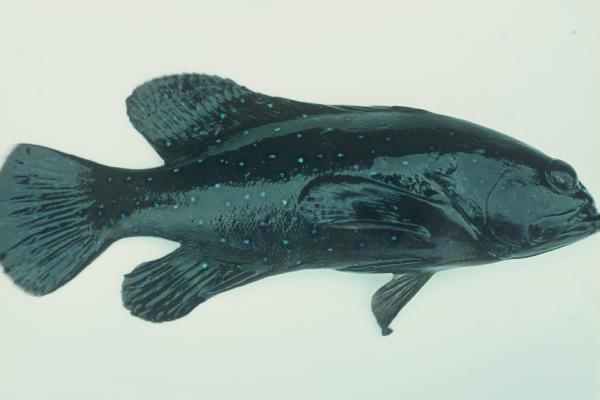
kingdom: Animalia
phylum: Chordata
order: Perciformes
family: Serranidae
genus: Cephalopholis
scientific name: Cephalopholis argus
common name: Peacock grouper
